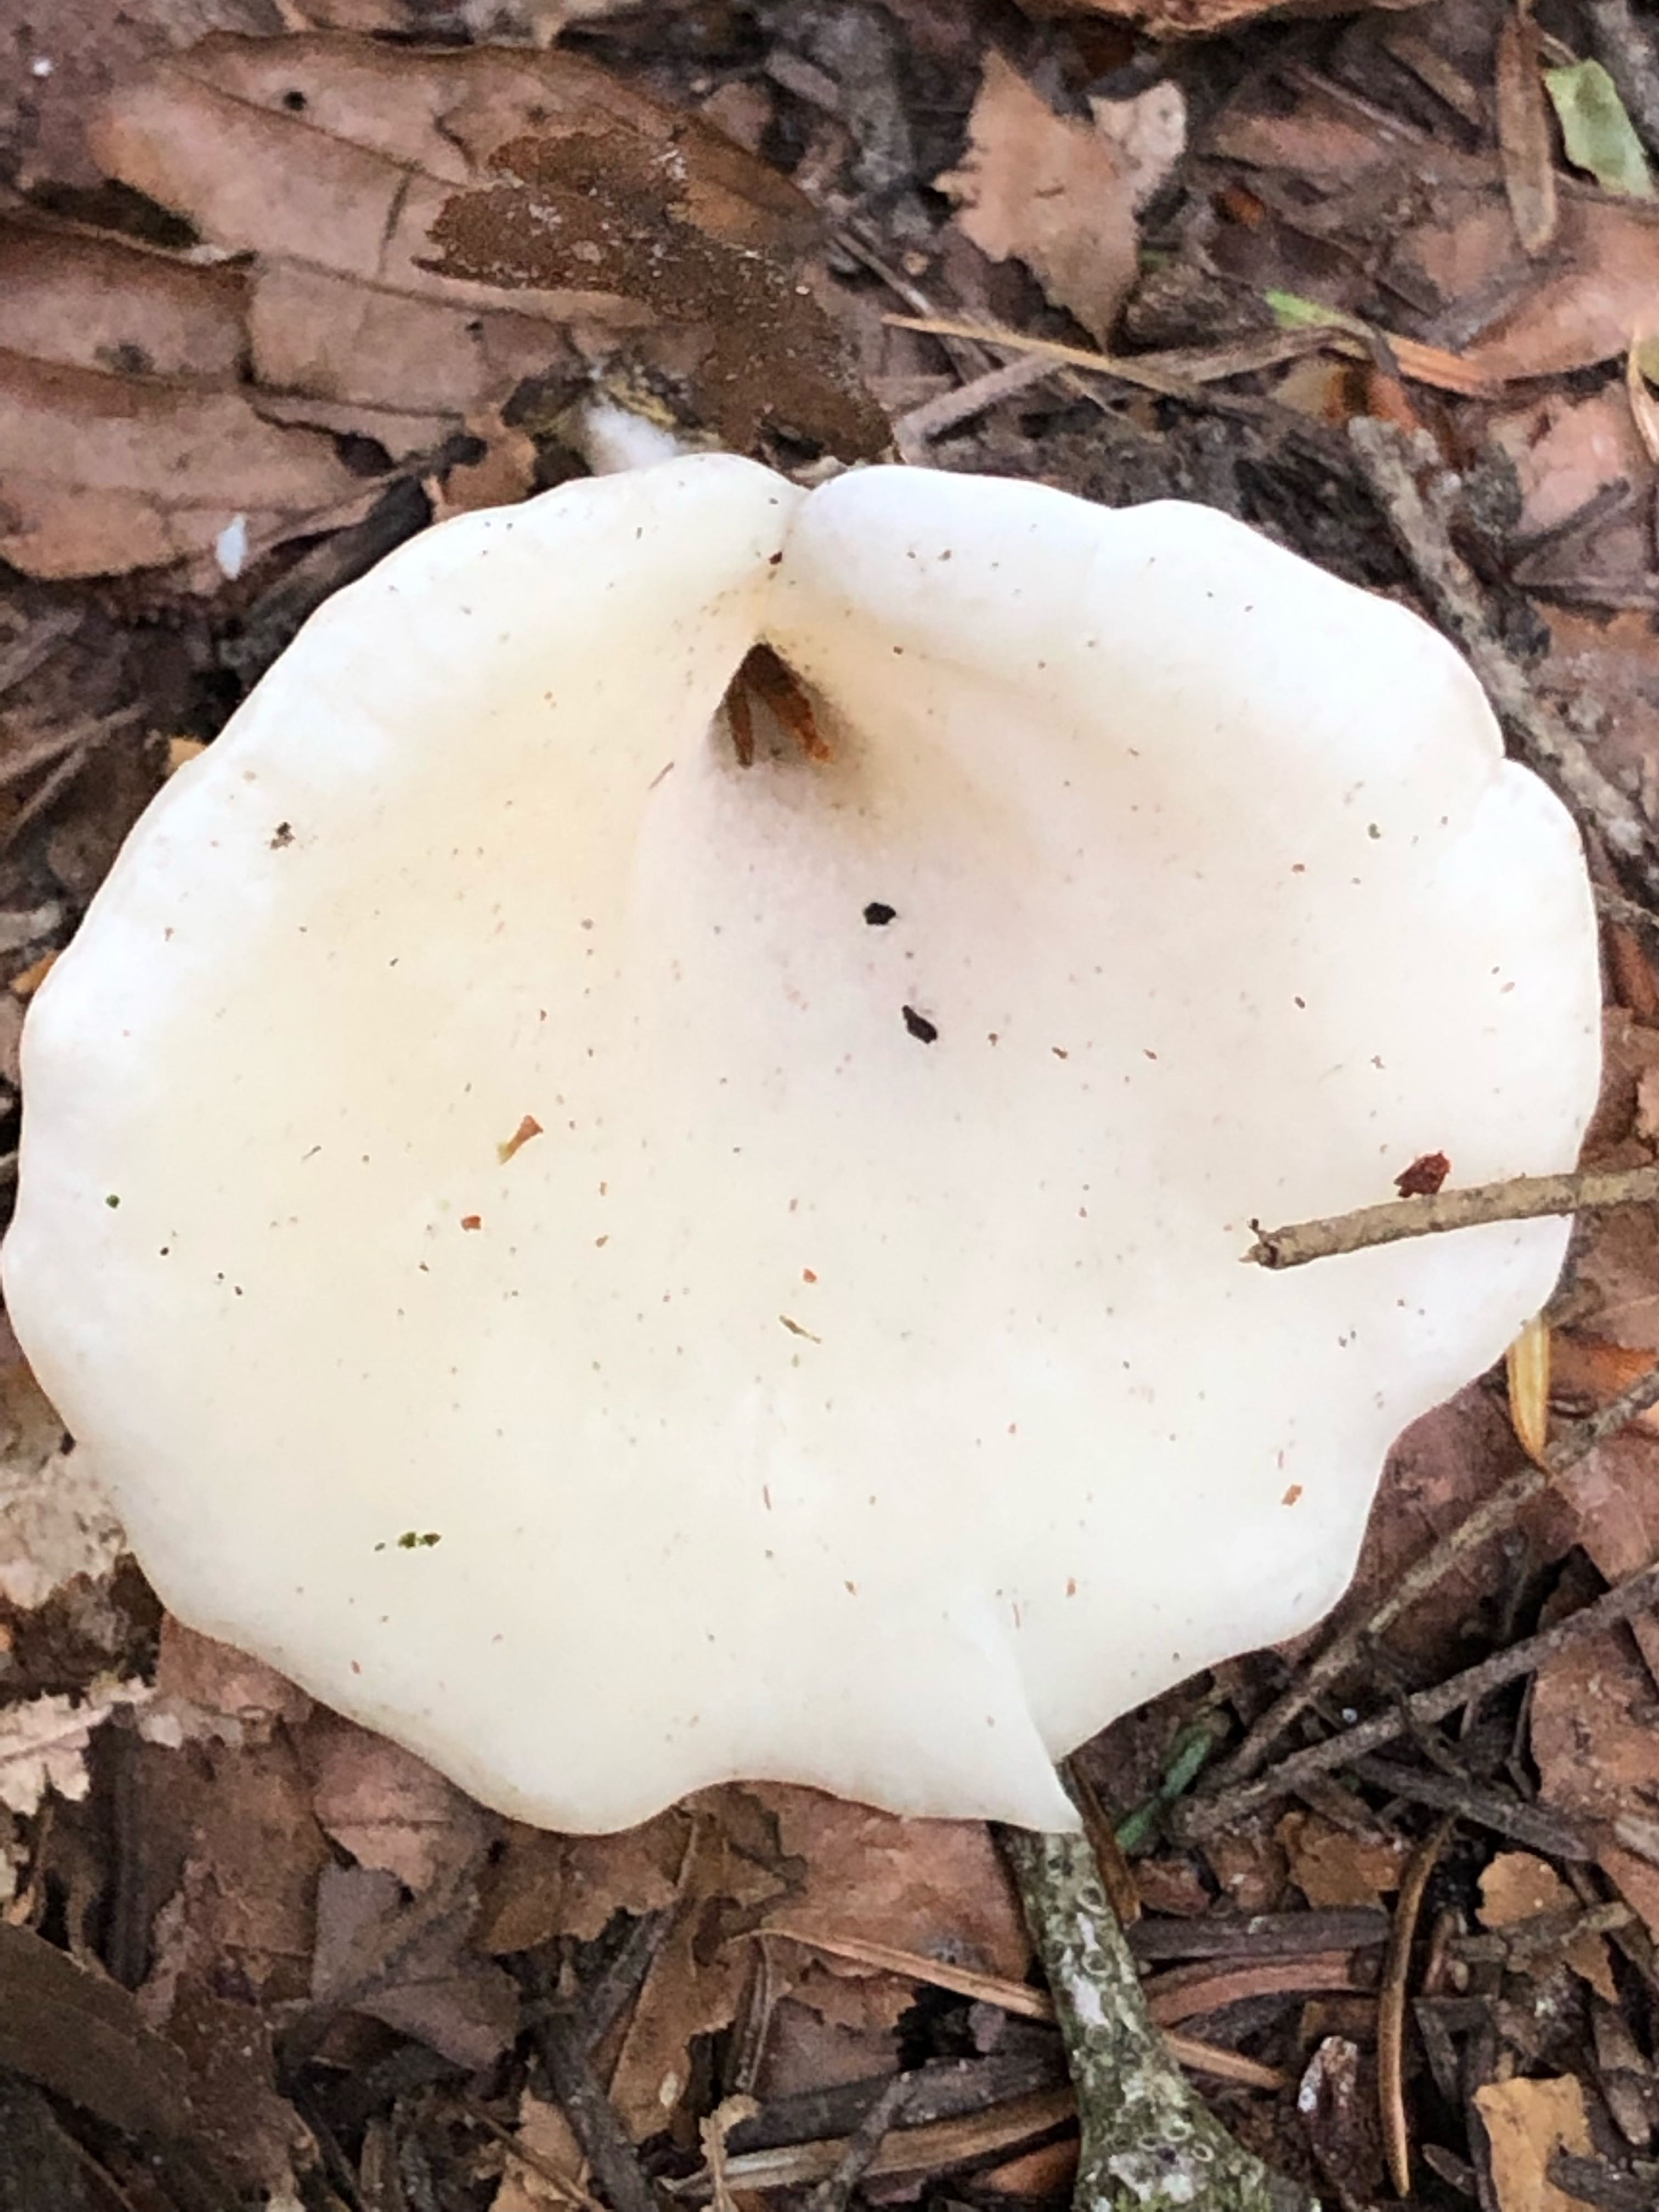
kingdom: Fungi
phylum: Basidiomycota
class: Agaricomycetes
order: Agaricales
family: Marasmiaceae
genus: Pleurocybella
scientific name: Pleurocybella porrigens
